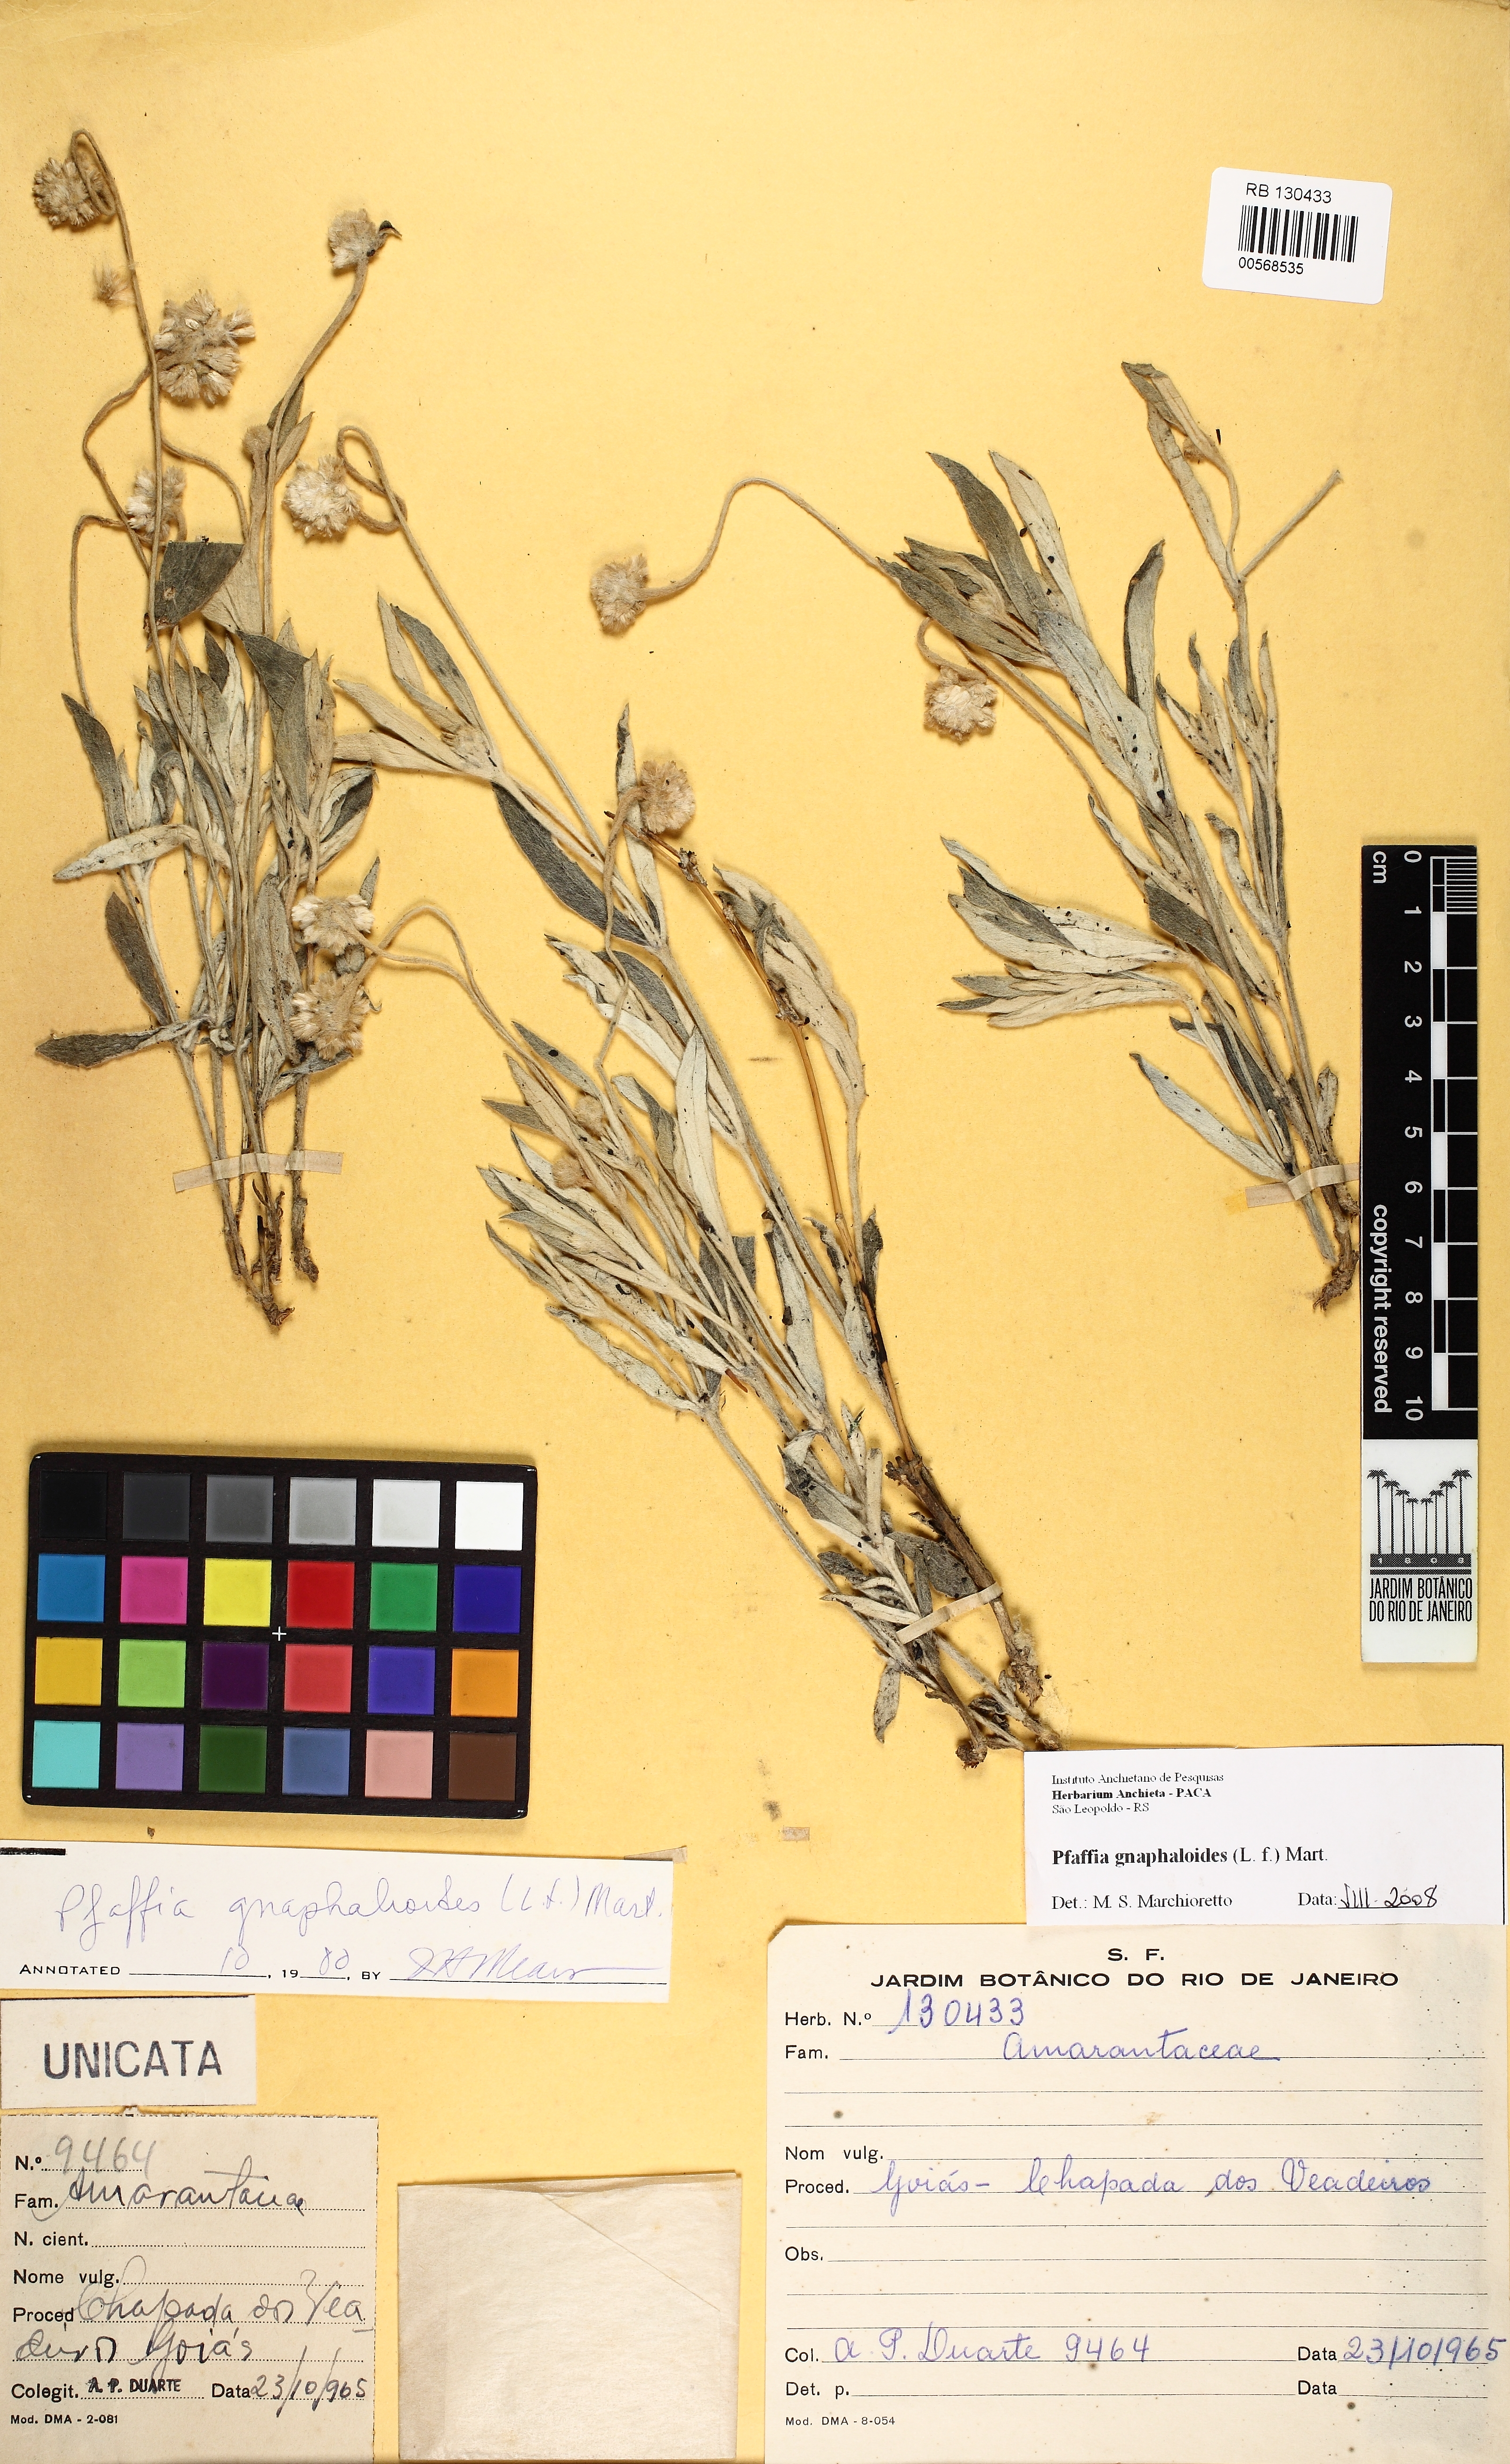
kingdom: Plantae
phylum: Tracheophyta
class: Magnoliopsida
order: Caryophyllales
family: Amaranthaceae
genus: Pfaffia
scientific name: Pfaffia gnaphaloides
